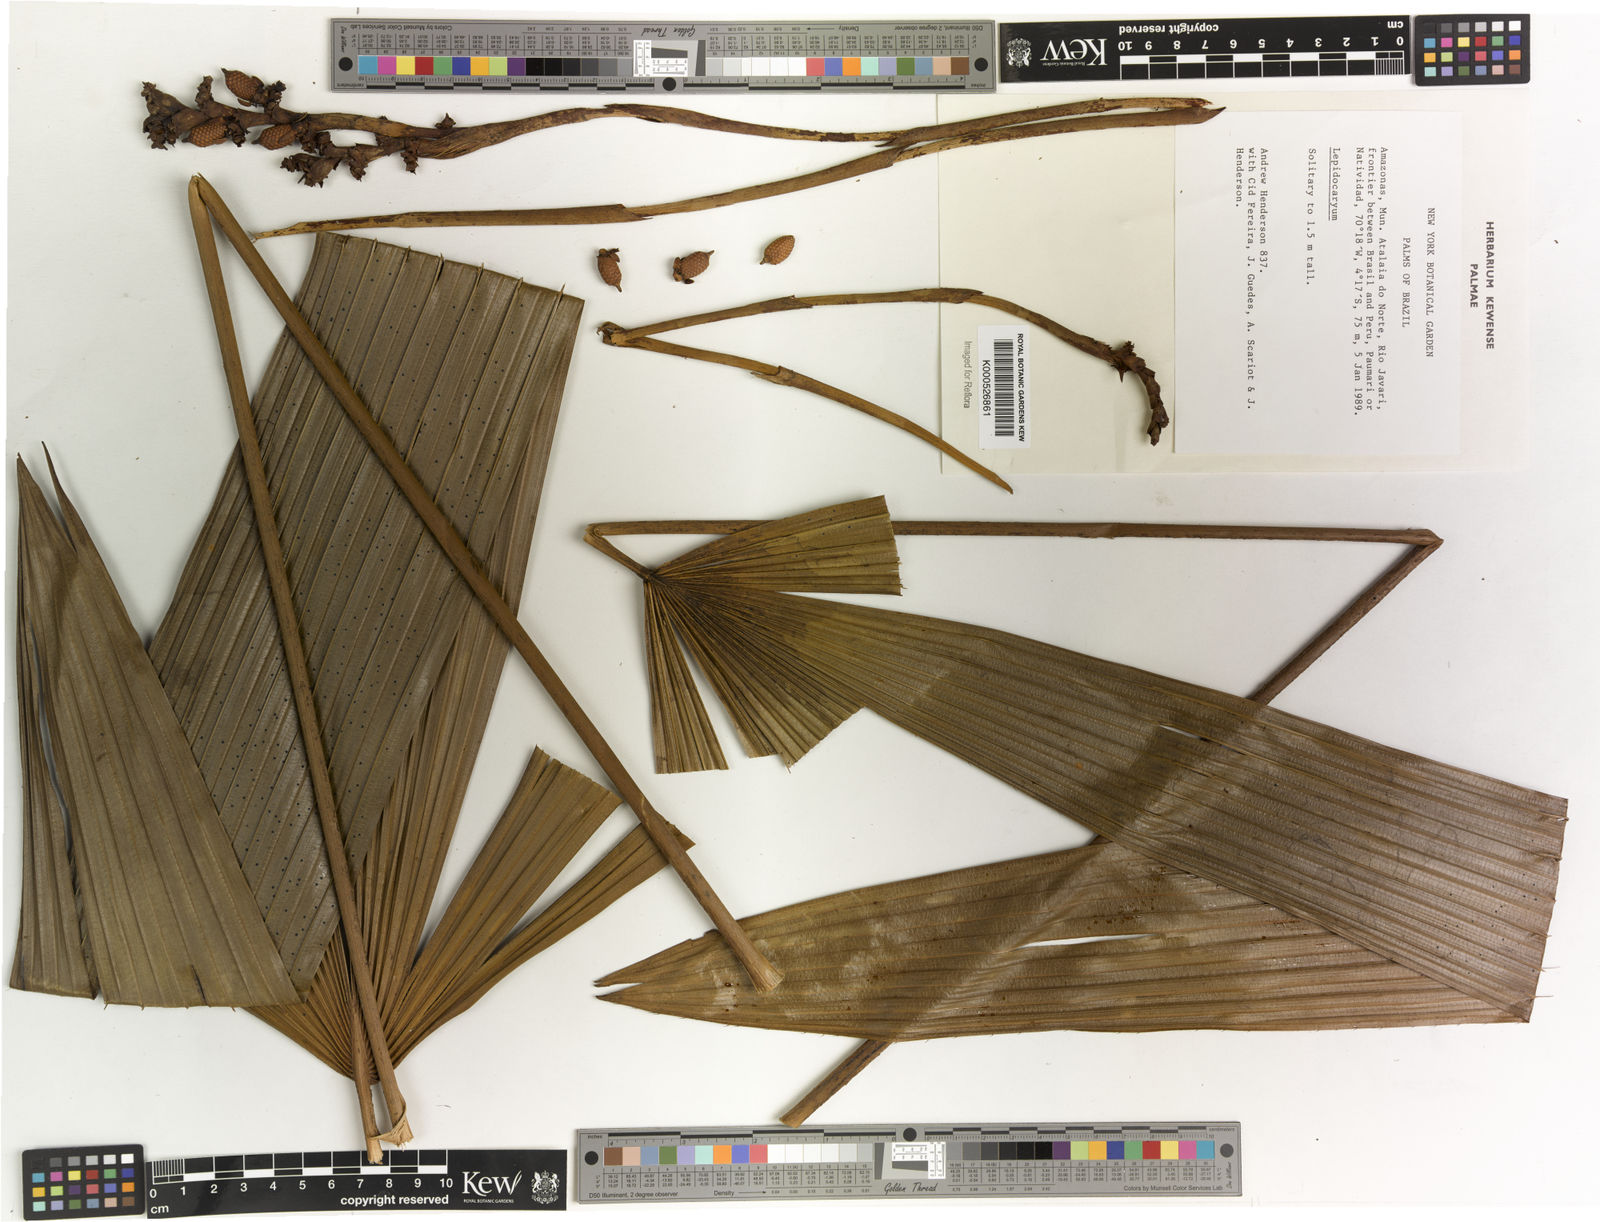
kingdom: Plantae
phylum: Tracheophyta
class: Liliopsida
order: Arecales
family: Arecaceae
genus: Lepidocaryum
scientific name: Lepidocaryum
